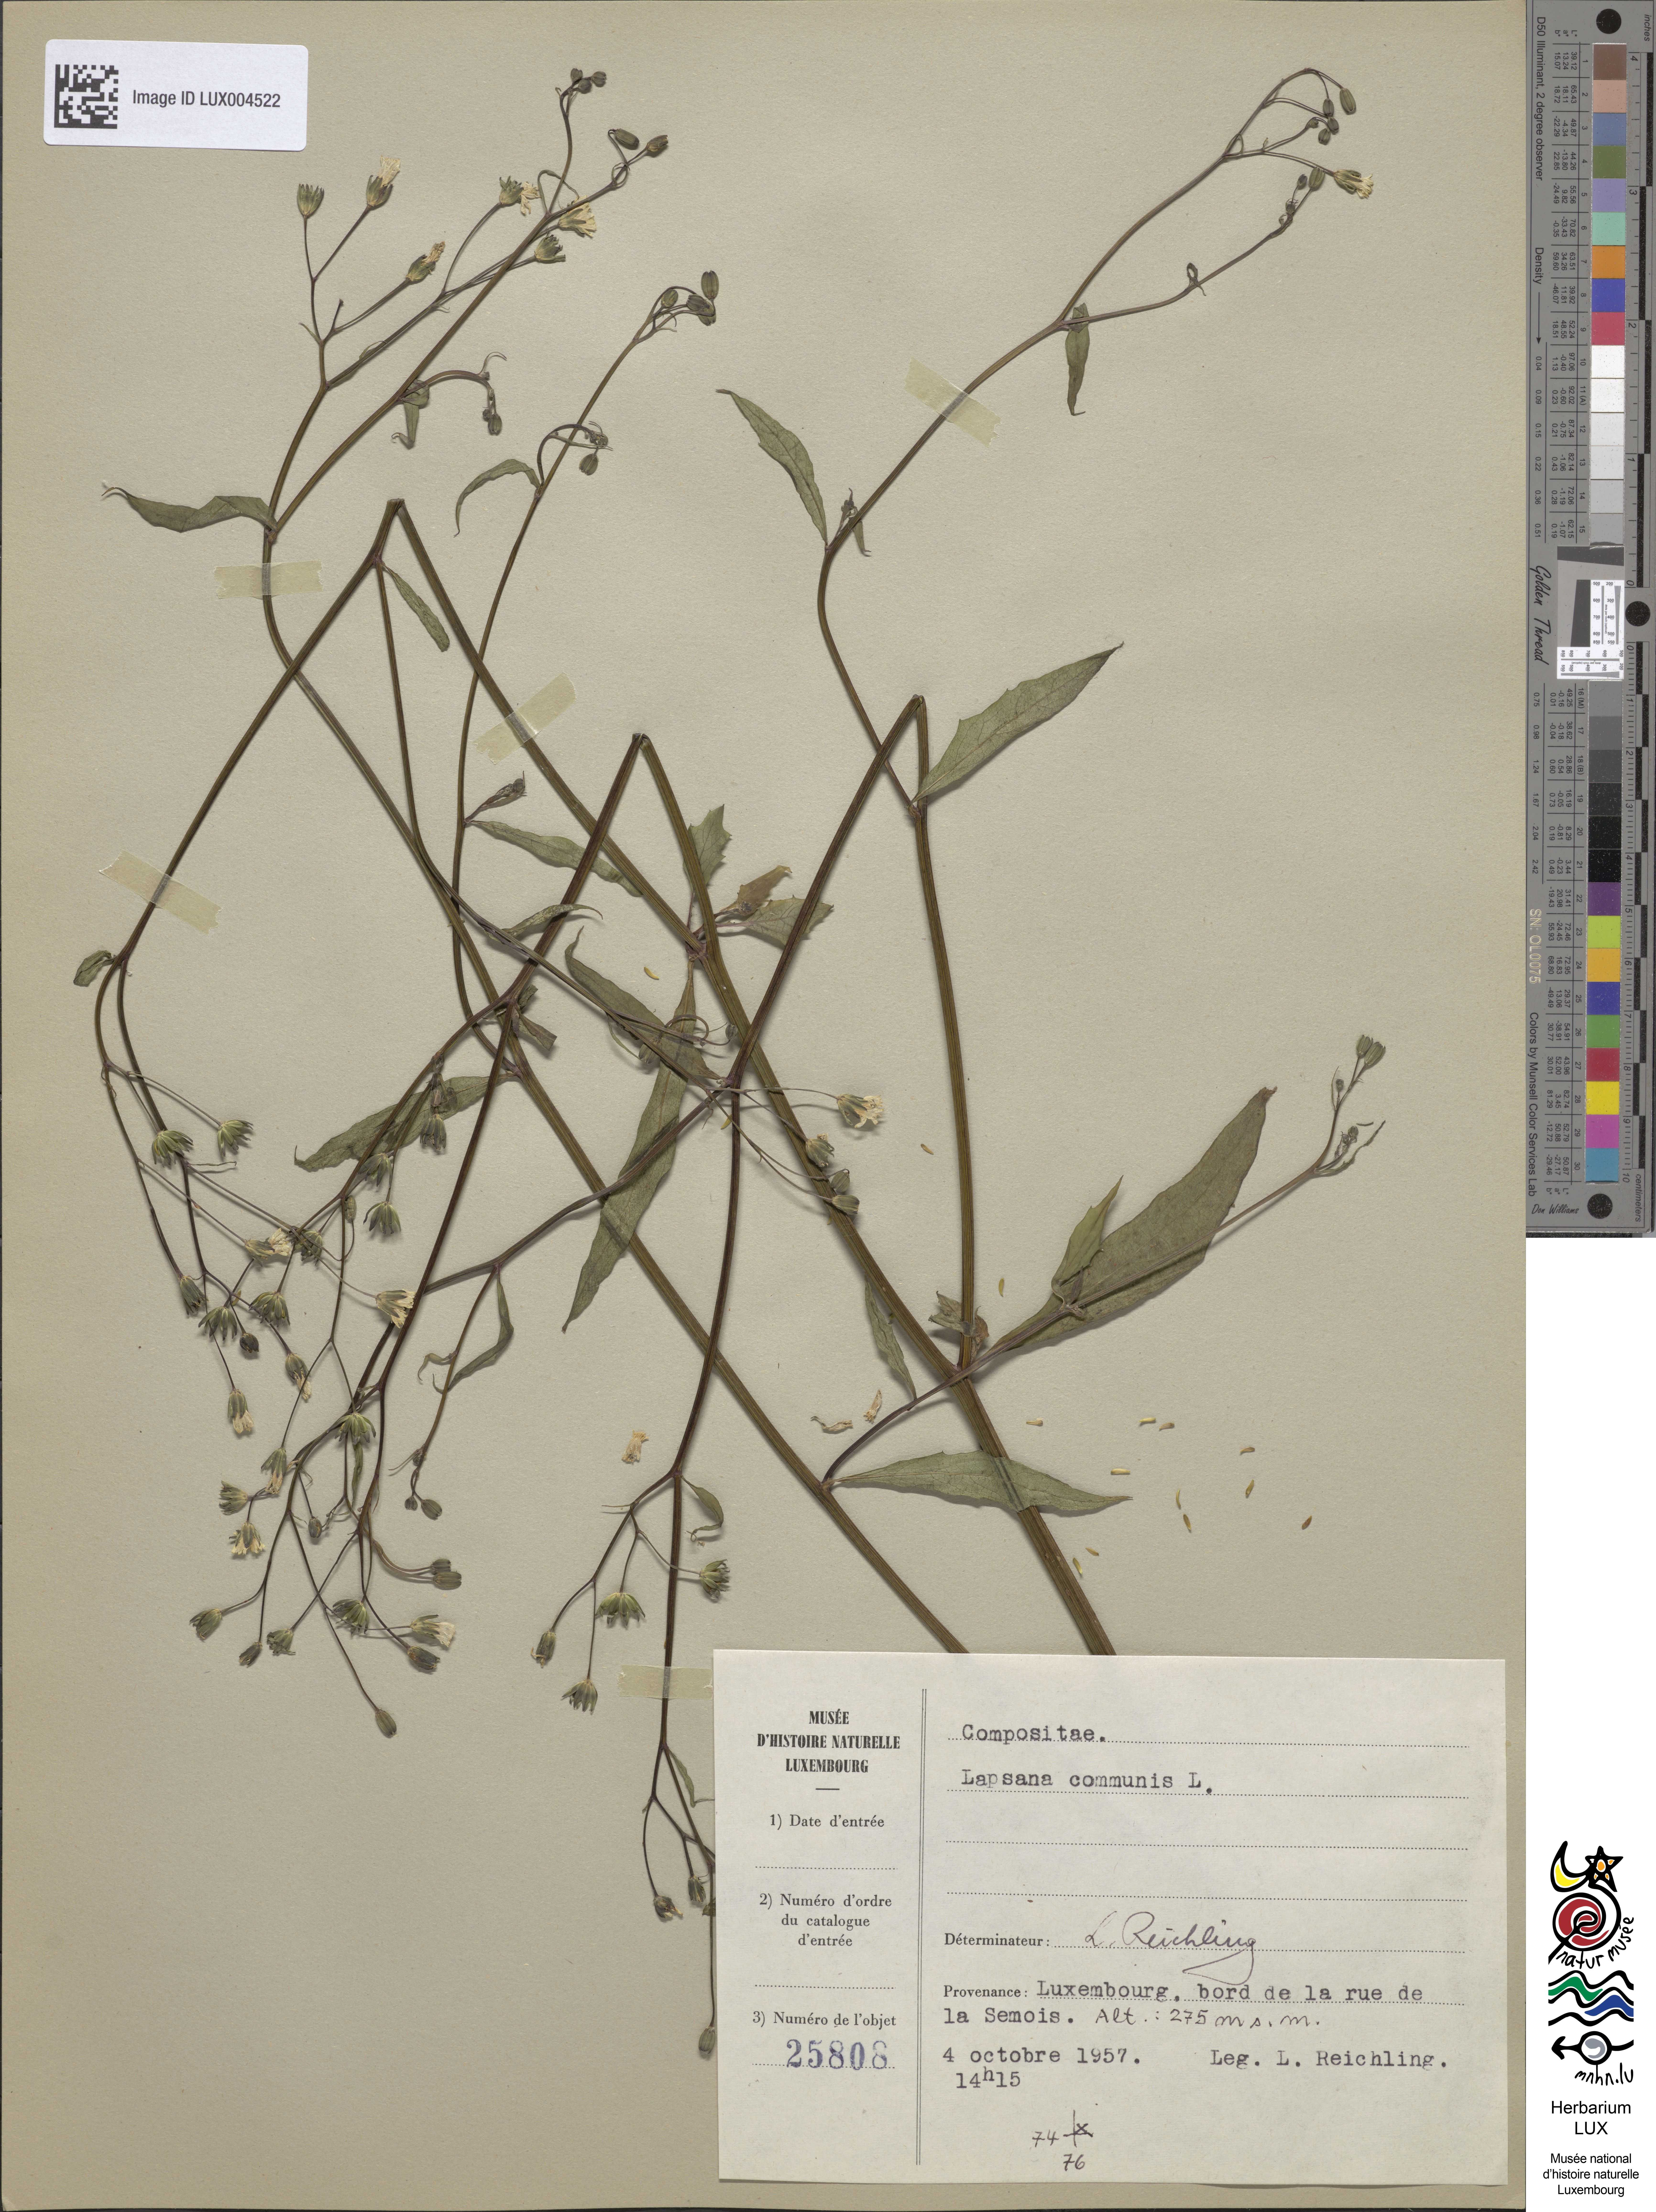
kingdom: Plantae
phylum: Tracheophyta
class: Magnoliopsida
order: Asterales
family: Asteraceae
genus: Lapsana
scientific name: Lapsana communis
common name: Nipplewort
